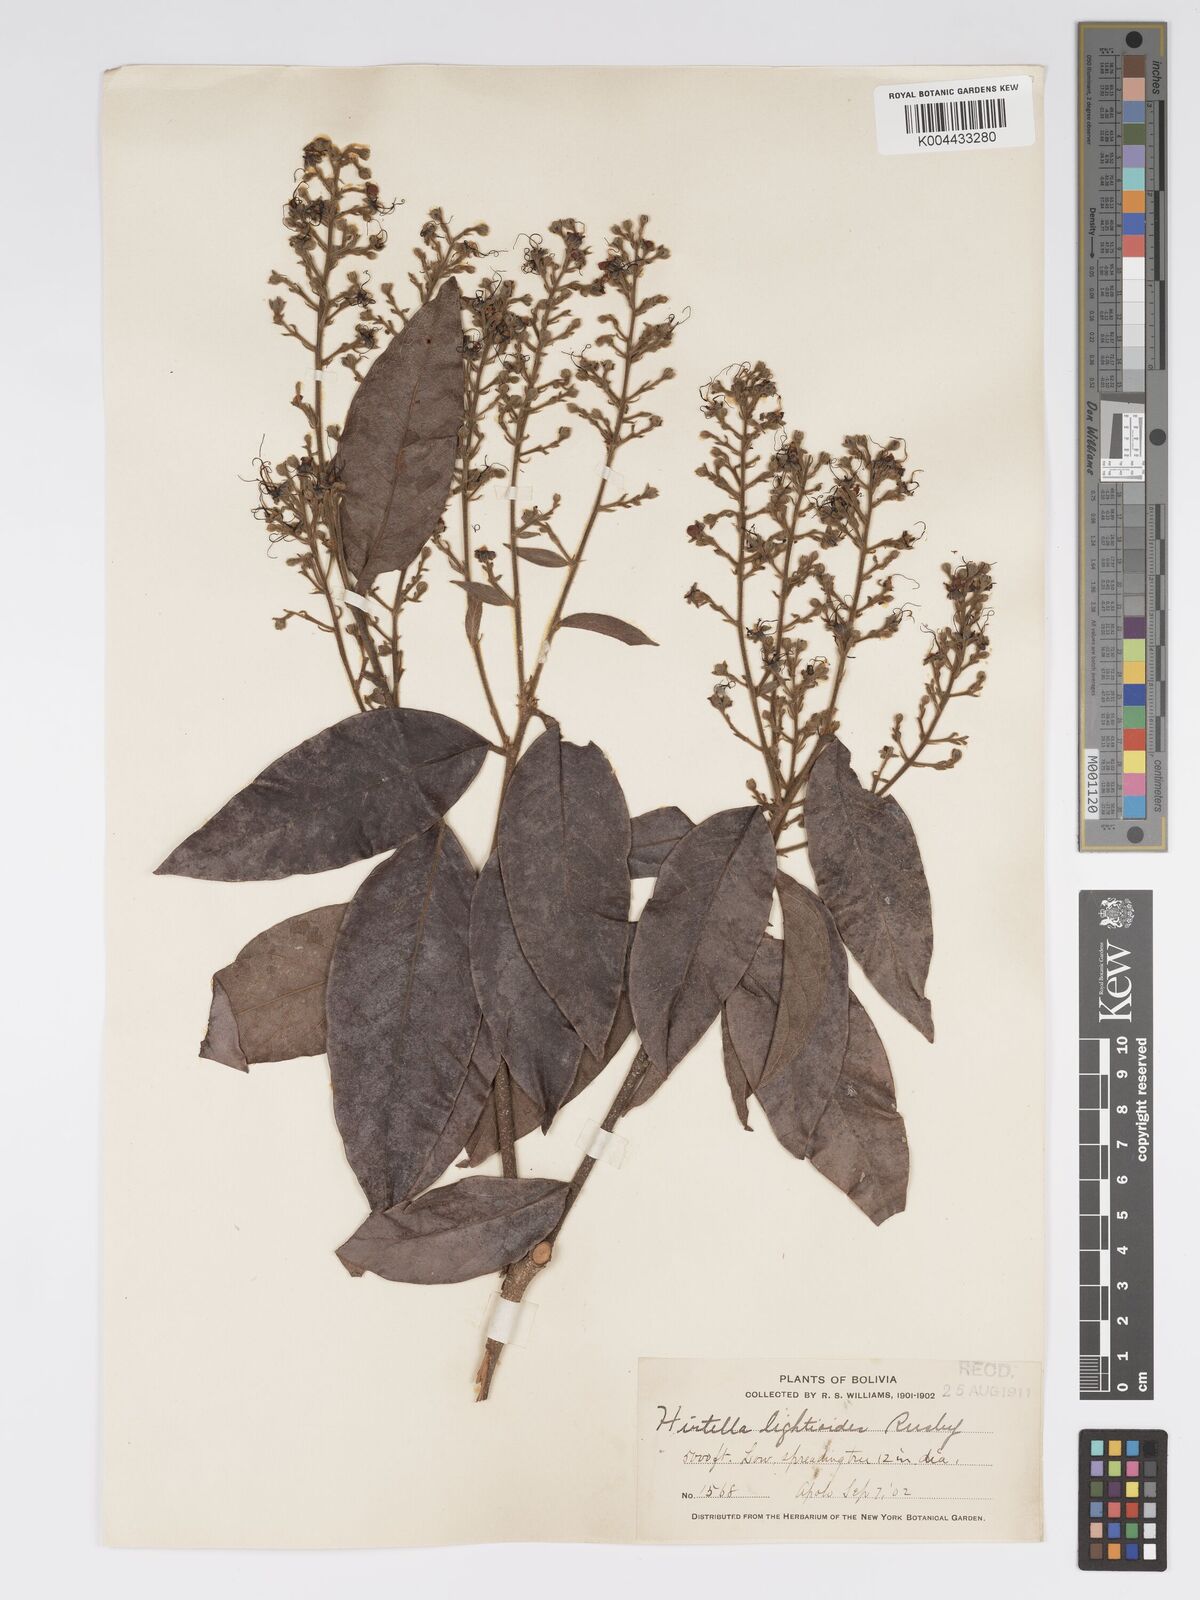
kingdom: Plantae
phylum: Tracheophyta
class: Magnoliopsida
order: Malpighiales
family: Chrysobalanaceae
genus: Hirtella
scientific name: Hirtella lightioides
